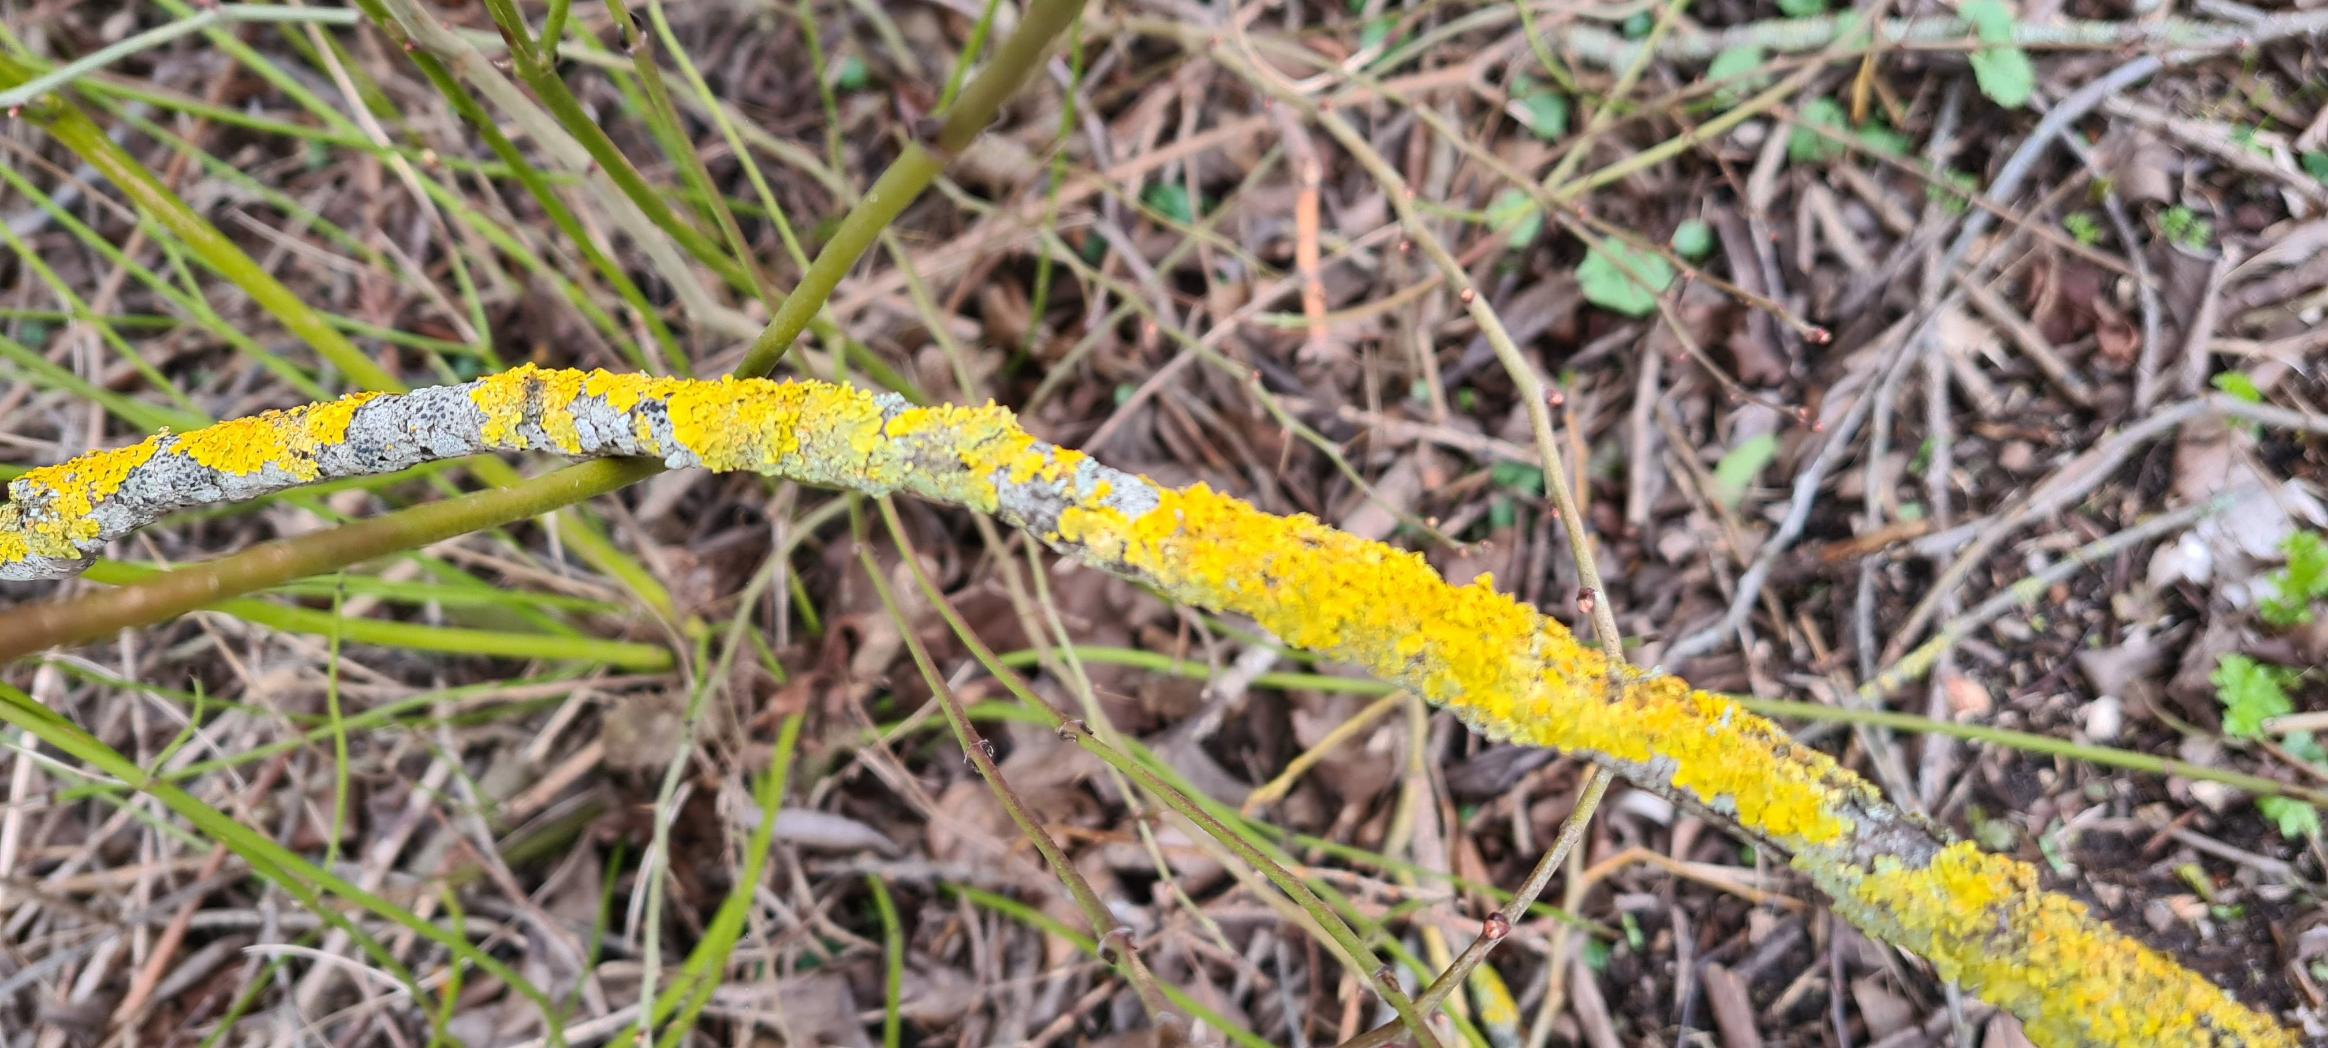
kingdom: Fungi
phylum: Ascomycota
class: Lecanoromycetes
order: Teloschistales
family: Teloschistaceae
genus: Xanthoria
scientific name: Xanthoria parietina
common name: Almindelig væggelav
